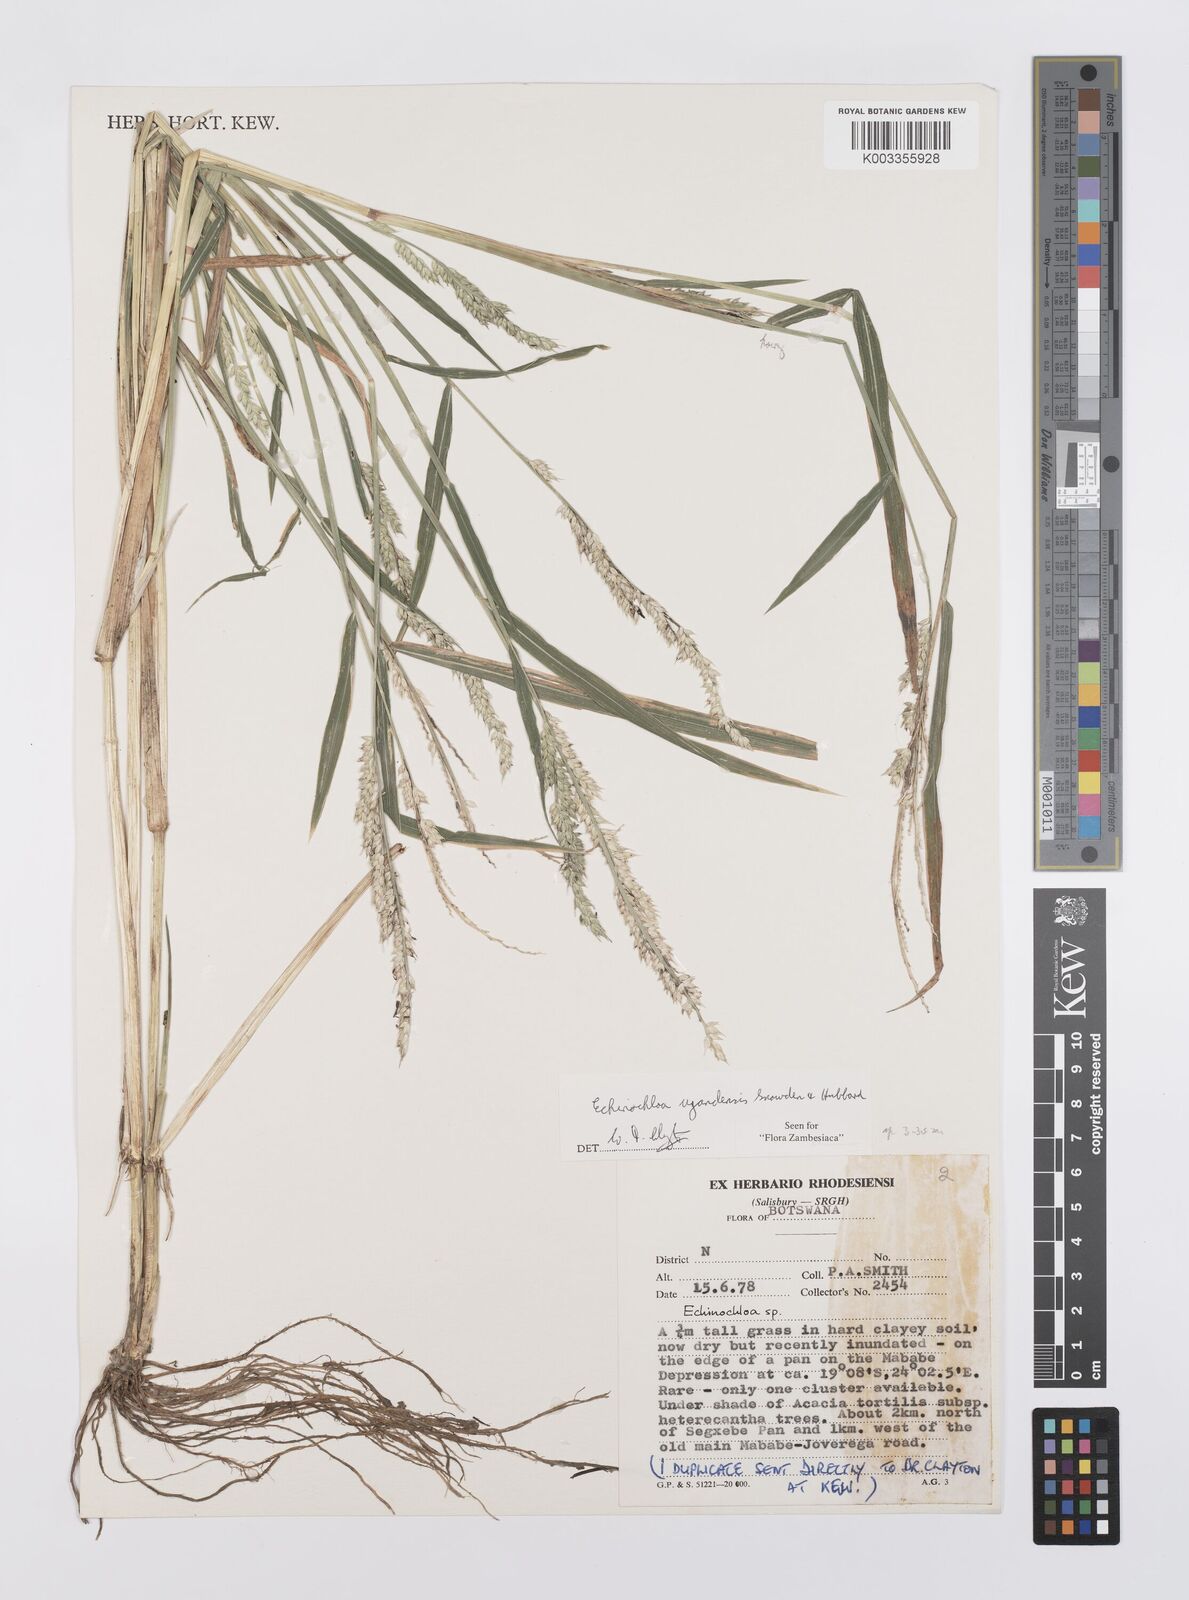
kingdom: Plantae
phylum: Tracheophyta
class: Liliopsida
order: Poales
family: Poaceae
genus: Echinochloa
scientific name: Echinochloa ugandensis
